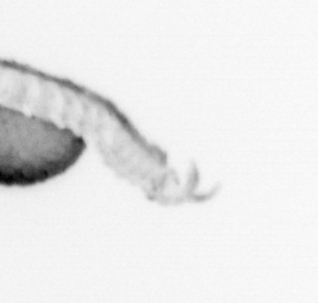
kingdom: Animalia
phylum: Annelida
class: Polychaeta
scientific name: Polychaeta
